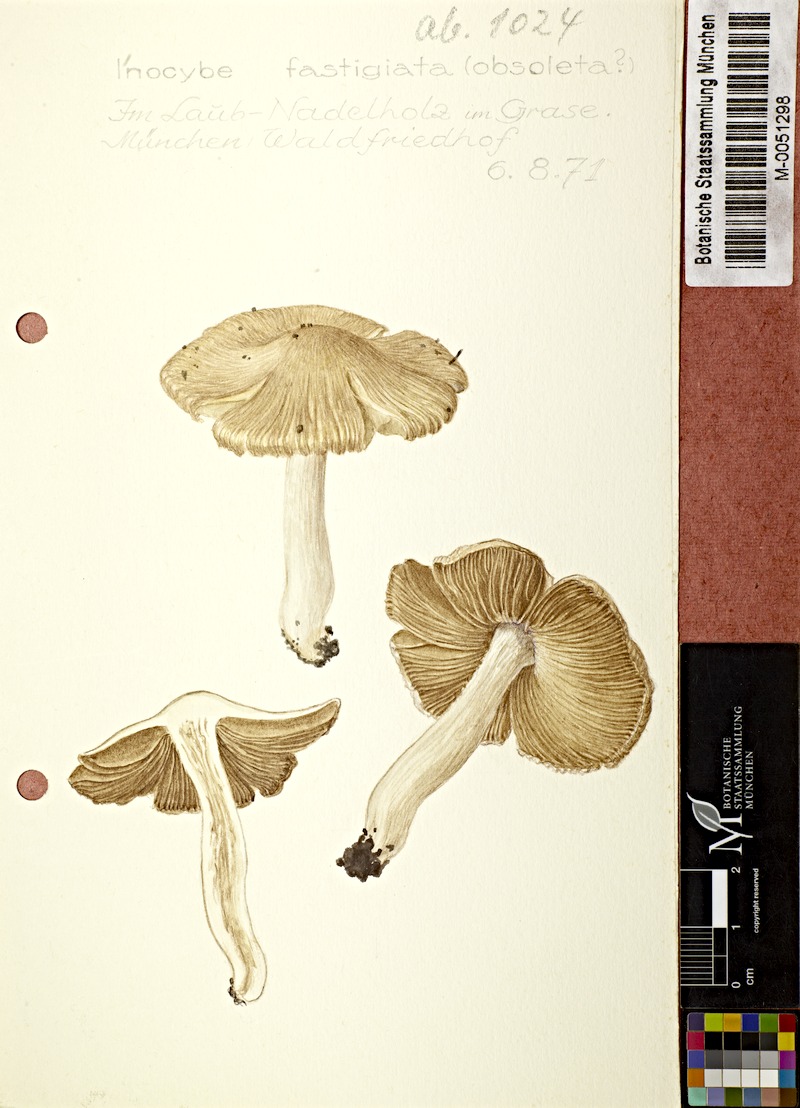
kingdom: Fungi
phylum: Basidiomycota
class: Agaricomycetes
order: Agaricales
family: Inocybaceae
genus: Pseudosperma
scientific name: Pseudosperma rimosum
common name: Split fibrecap
